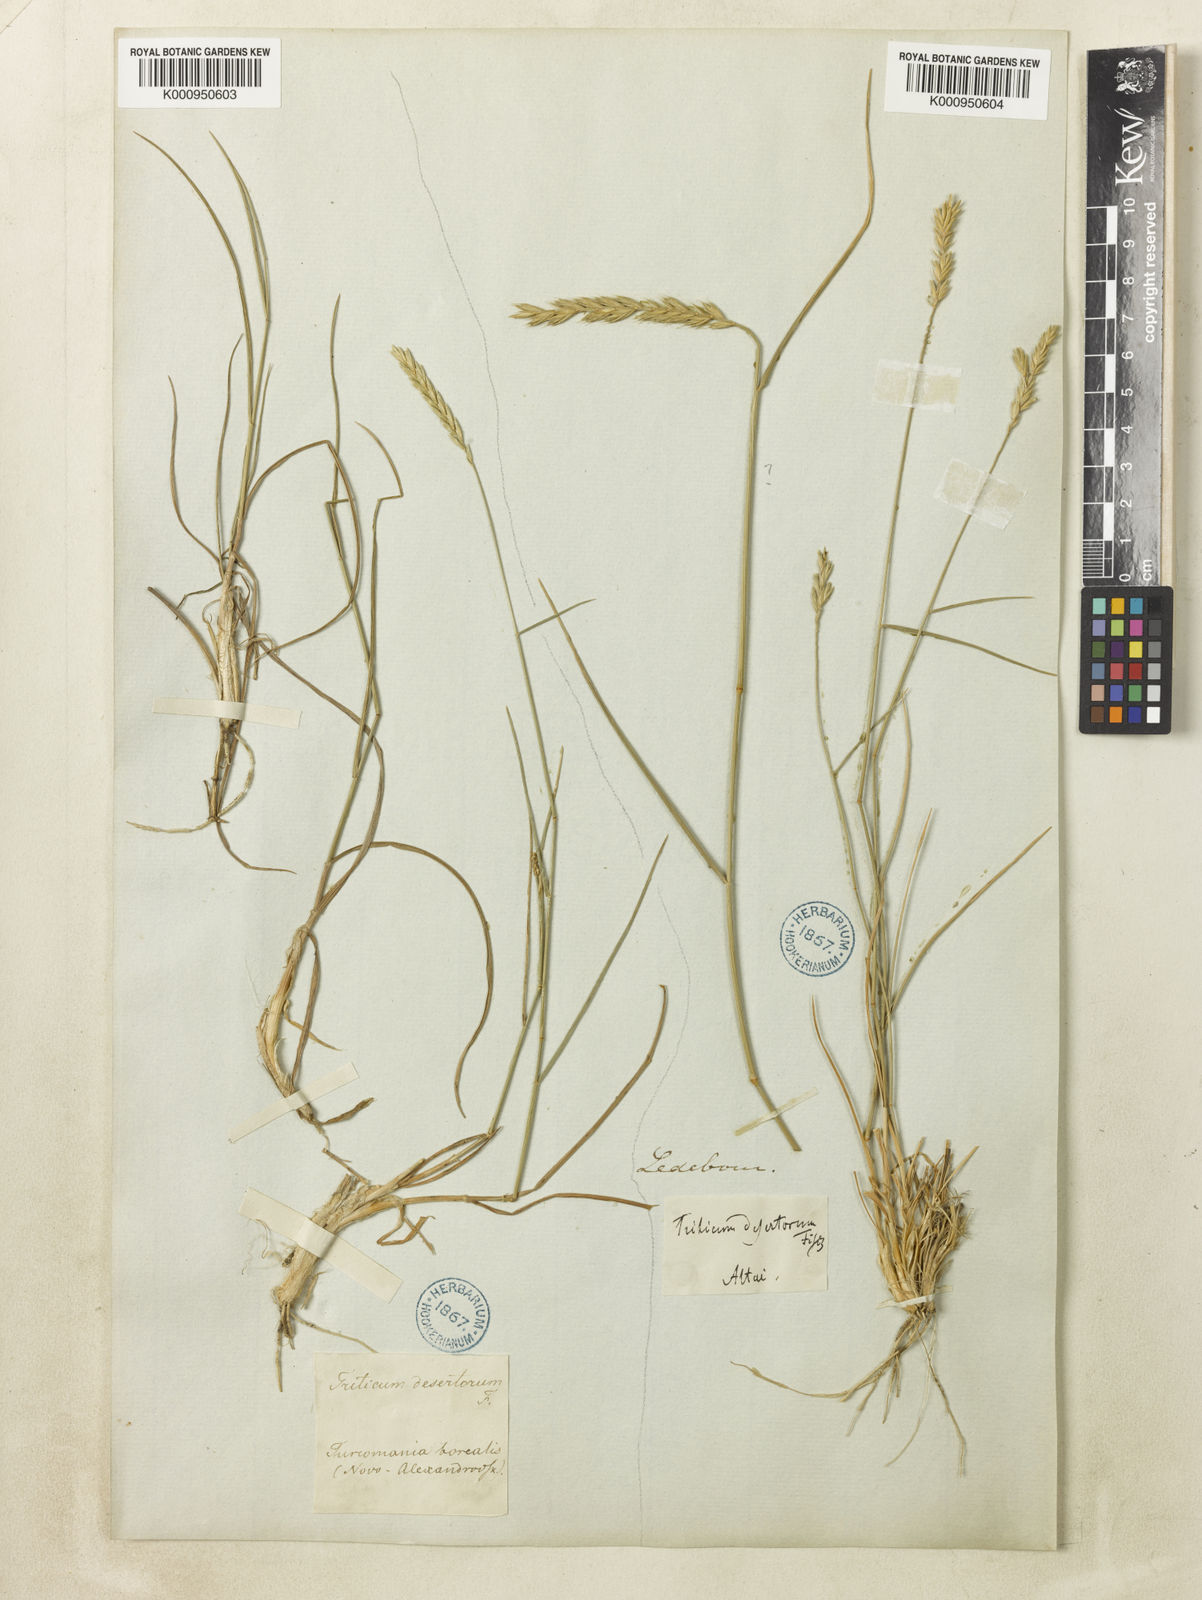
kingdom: Plantae
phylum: Tracheophyta
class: Liliopsida
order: Poales
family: Poaceae
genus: Agropyron
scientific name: Agropyron desertorum
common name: Desert wheatgrass
